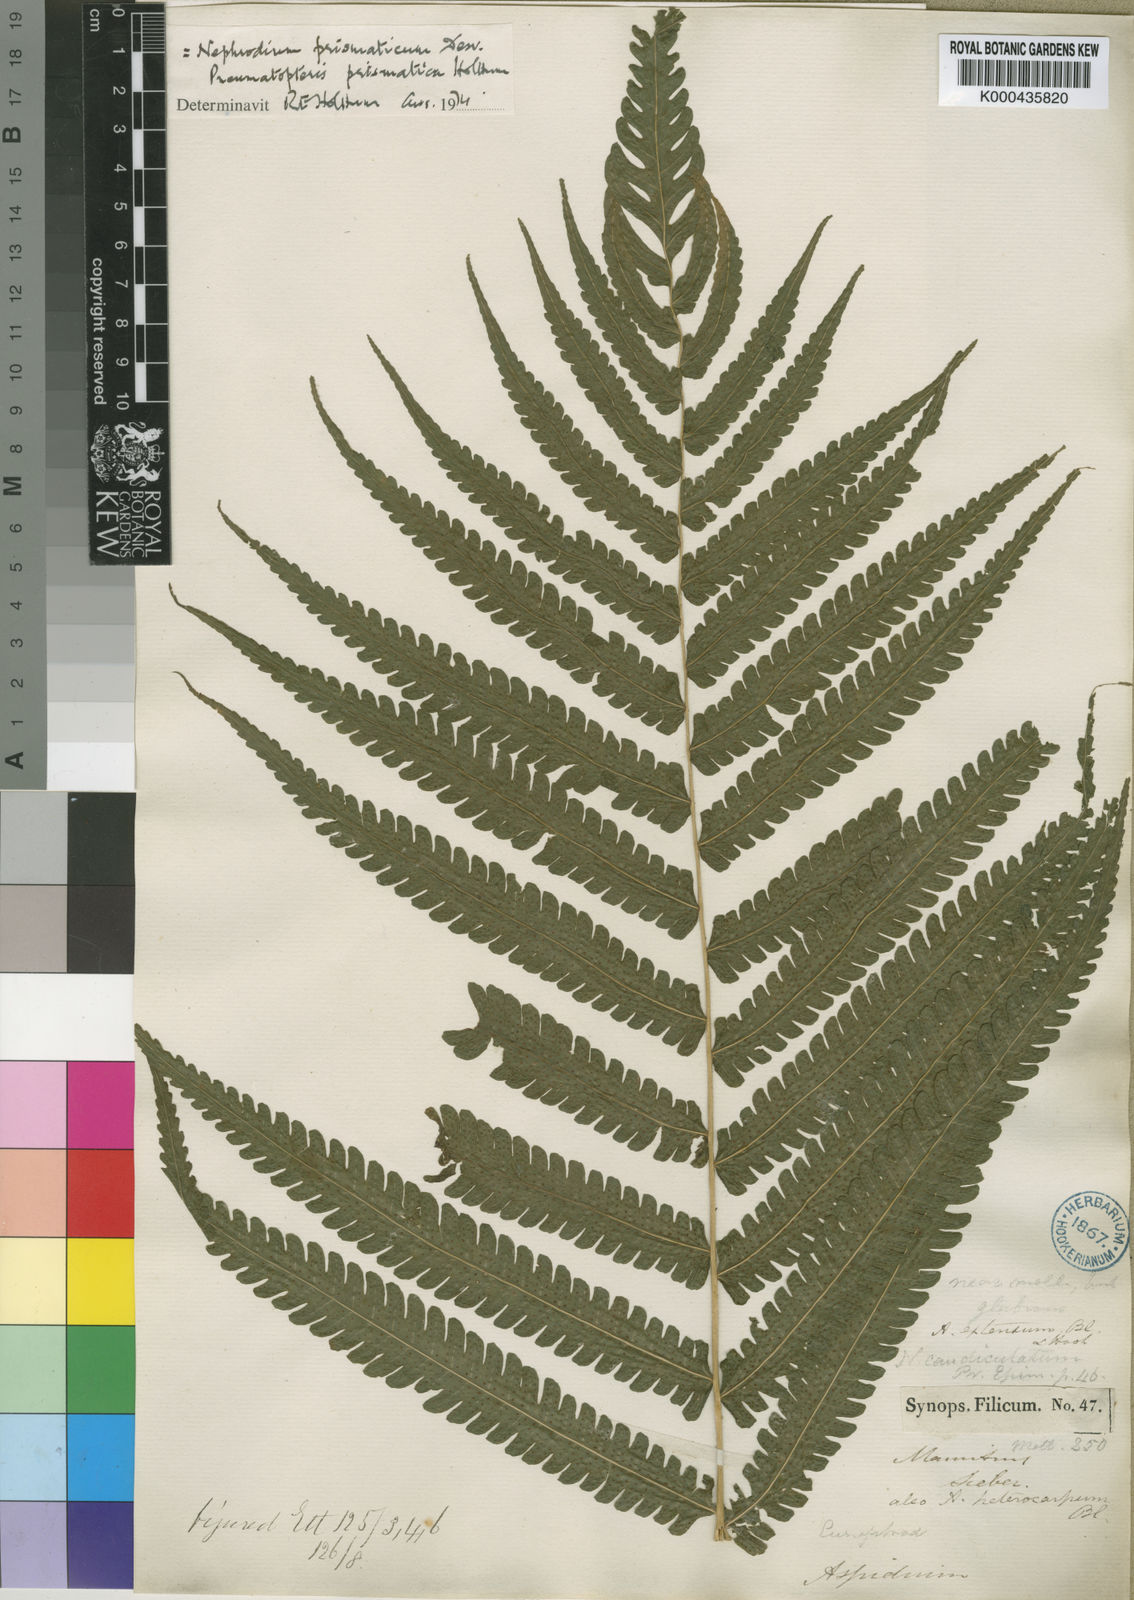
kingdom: Plantae
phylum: Tracheophyta
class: Polypodiopsida
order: Polypodiales
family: Thelypteridaceae
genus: Pneumatopteris
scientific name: Pneumatopteris prismatica
